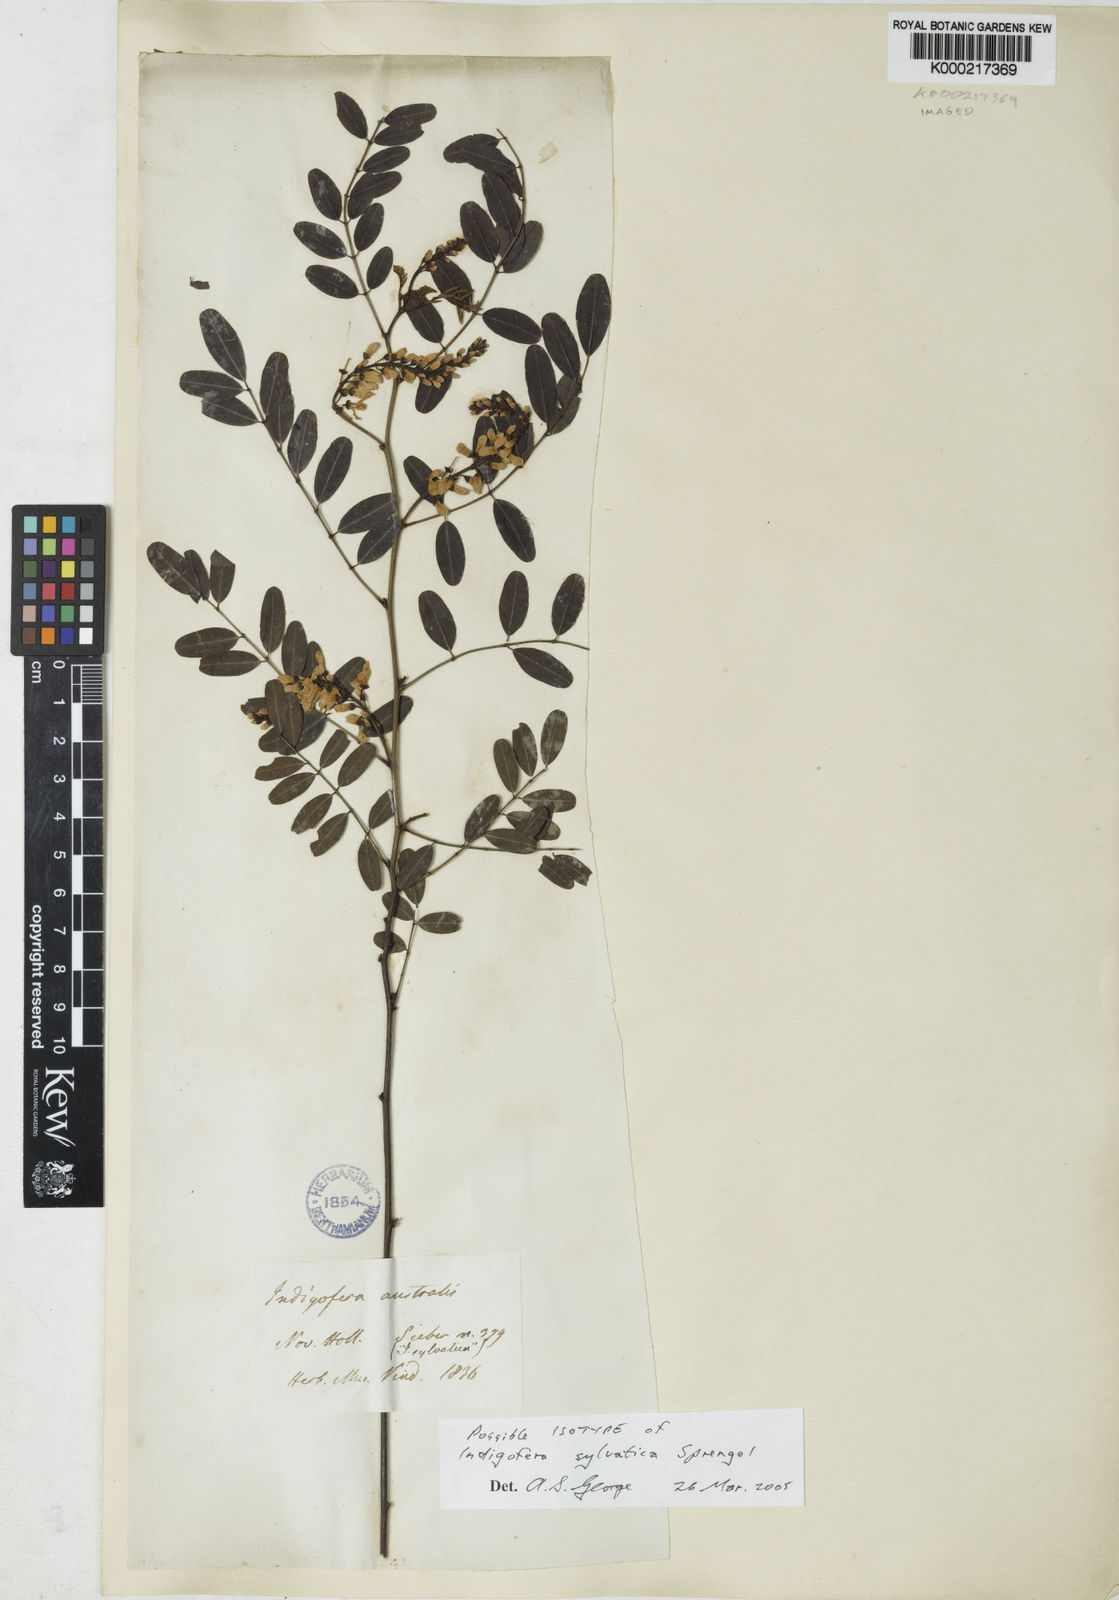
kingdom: Plantae
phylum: Tracheophyta
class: Magnoliopsida
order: Fabales
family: Fabaceae
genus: Indigofera
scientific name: Indigofera australis
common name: Australian indigo
